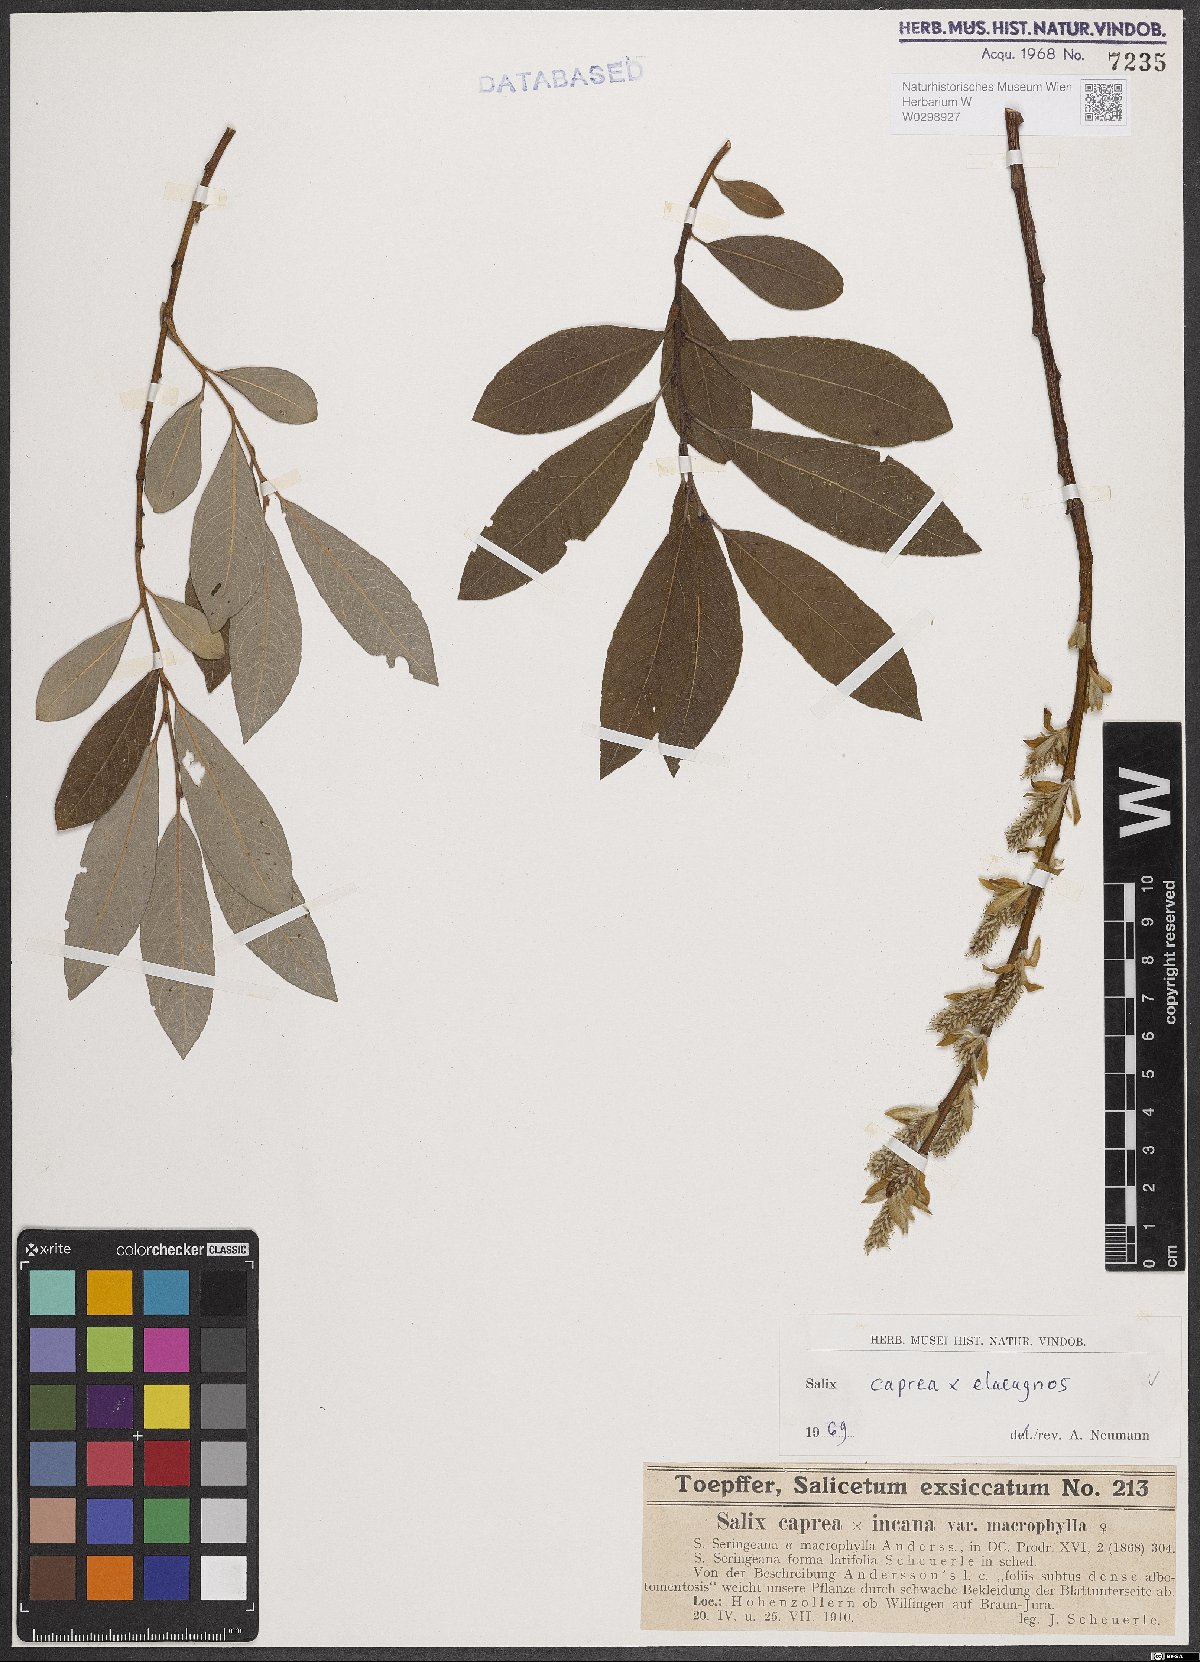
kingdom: Plantae
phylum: Tracheophyta
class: Magnoliopsida
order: Malpighiales
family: Salicaceae
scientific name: Salicaceae
